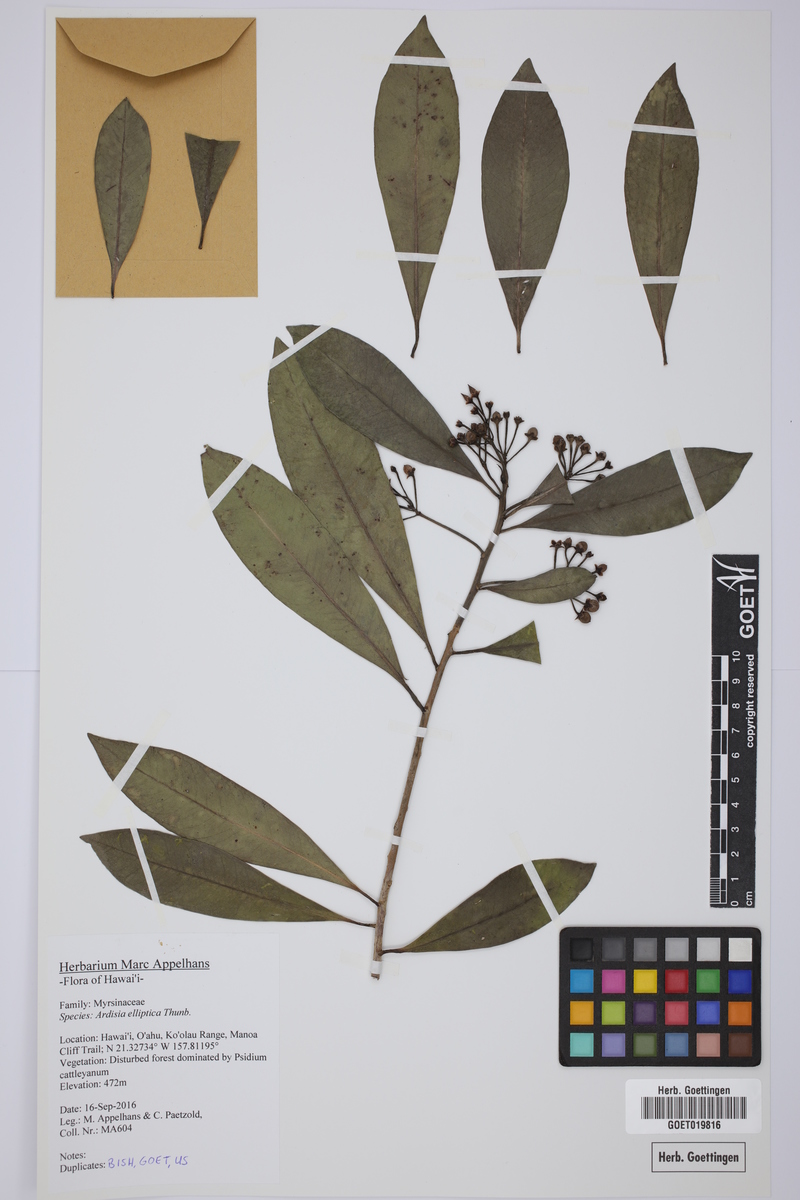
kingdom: Plantae
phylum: Tracheophyta
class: Magnoliopsida
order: Ericales
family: Primulaceae
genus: Ardisia
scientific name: Ardisia elliptica
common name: Shoebutton
